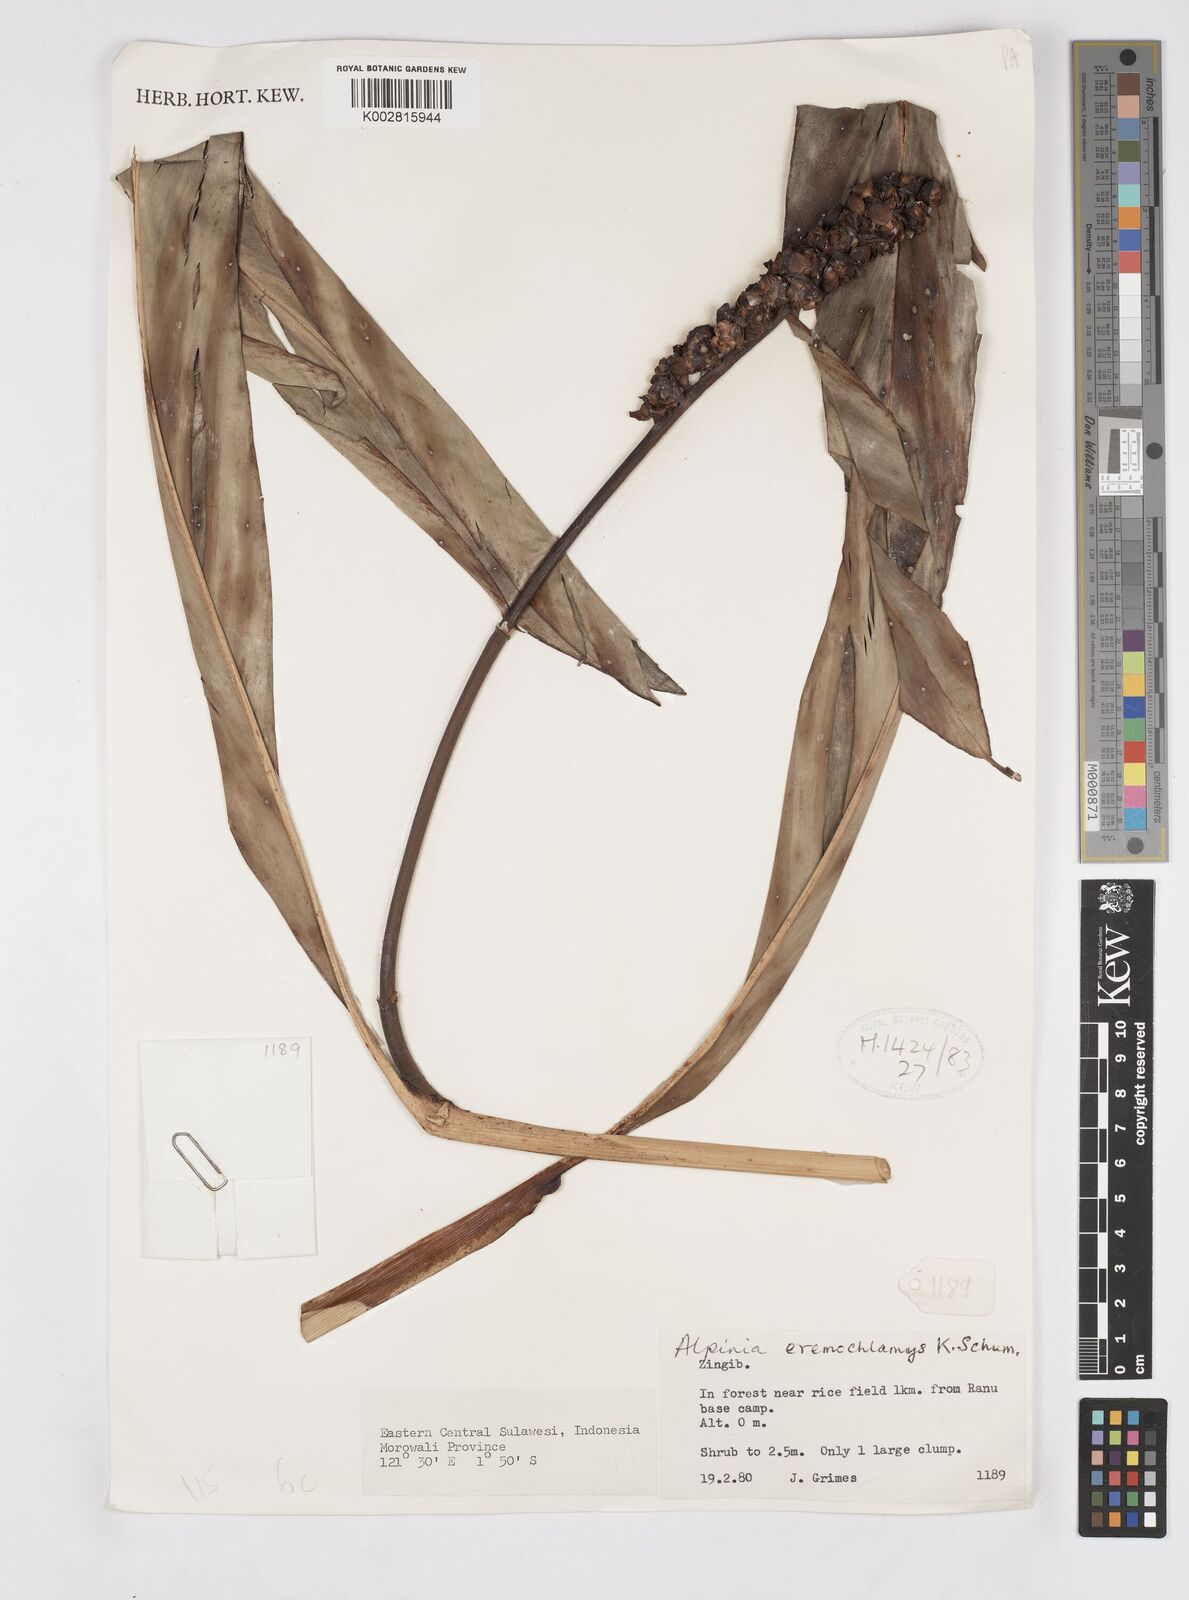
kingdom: Plantae
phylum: Tracheophyta
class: Liliopsida
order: Zingiberales
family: Zingiberaceae
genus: Alpinia
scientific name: Alpinia eremochlamys
